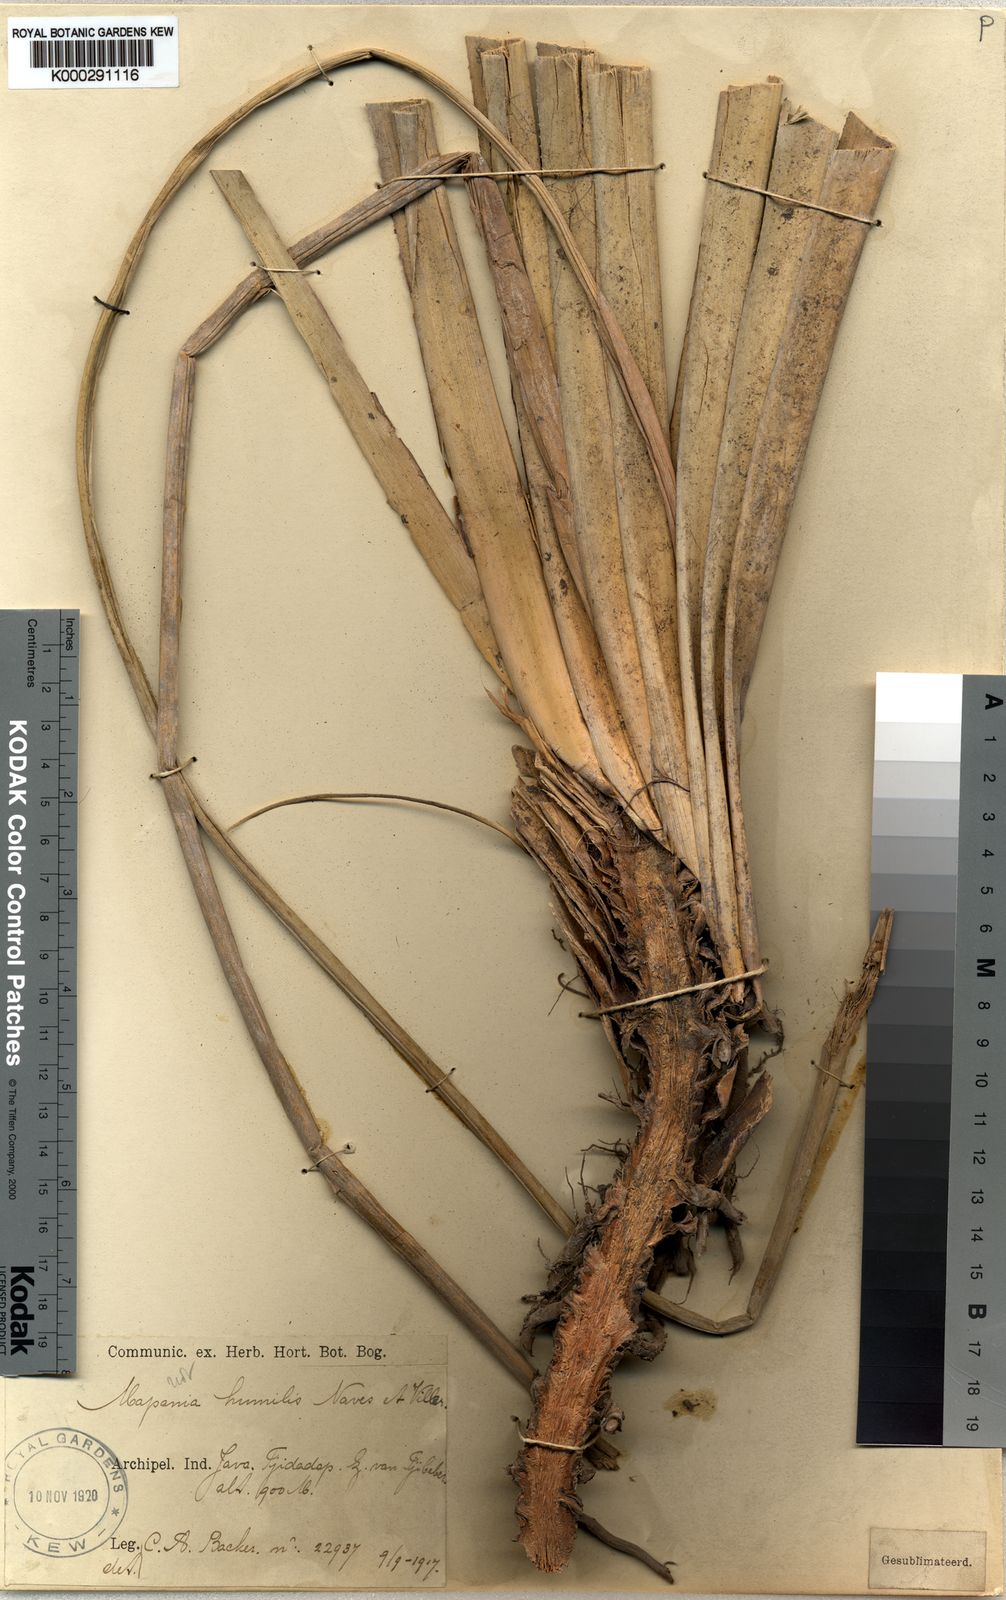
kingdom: Plantae
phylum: Tracheophyta
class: Liliopsida
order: Poales
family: Cyperaceae
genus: Mapania
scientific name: Mapania palustris
